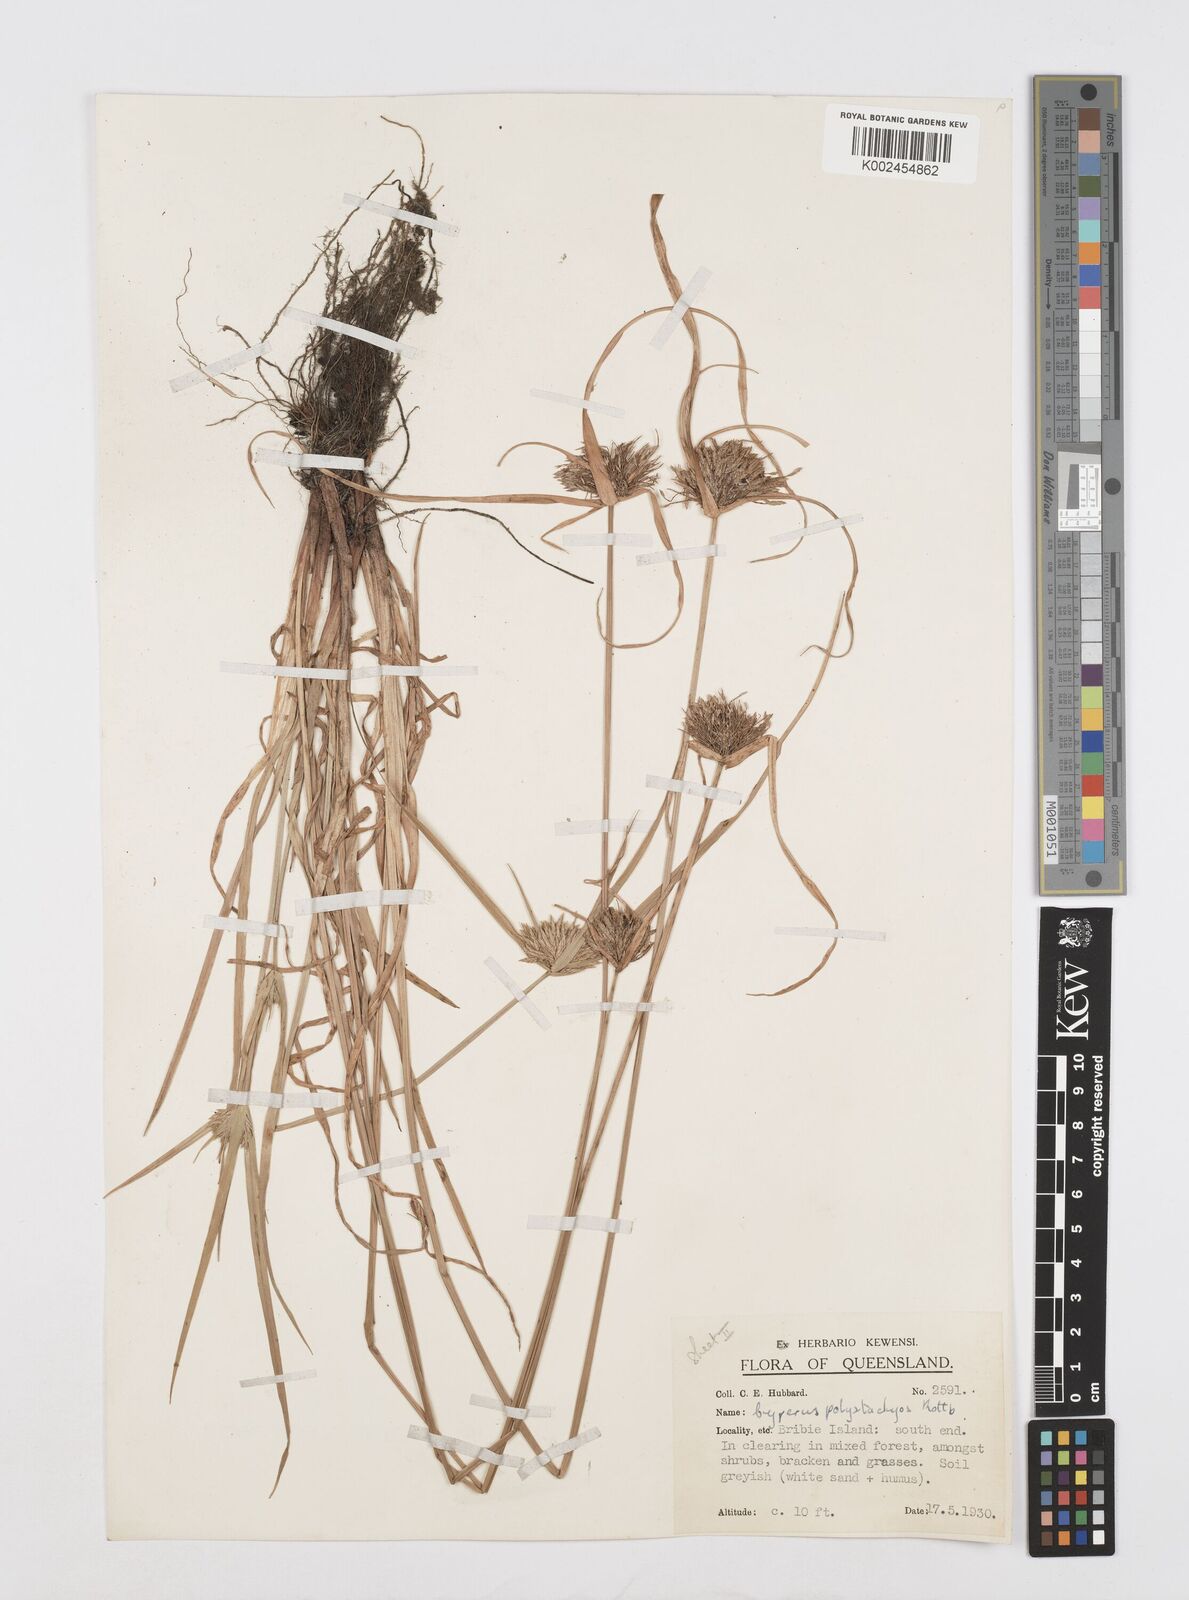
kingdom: Plantae
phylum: Tracheophyta
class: Liliopsida
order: Poales
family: Cyperaceae
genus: Cyperus
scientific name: Cyperus polystachyos
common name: Bunchy flat sedge
